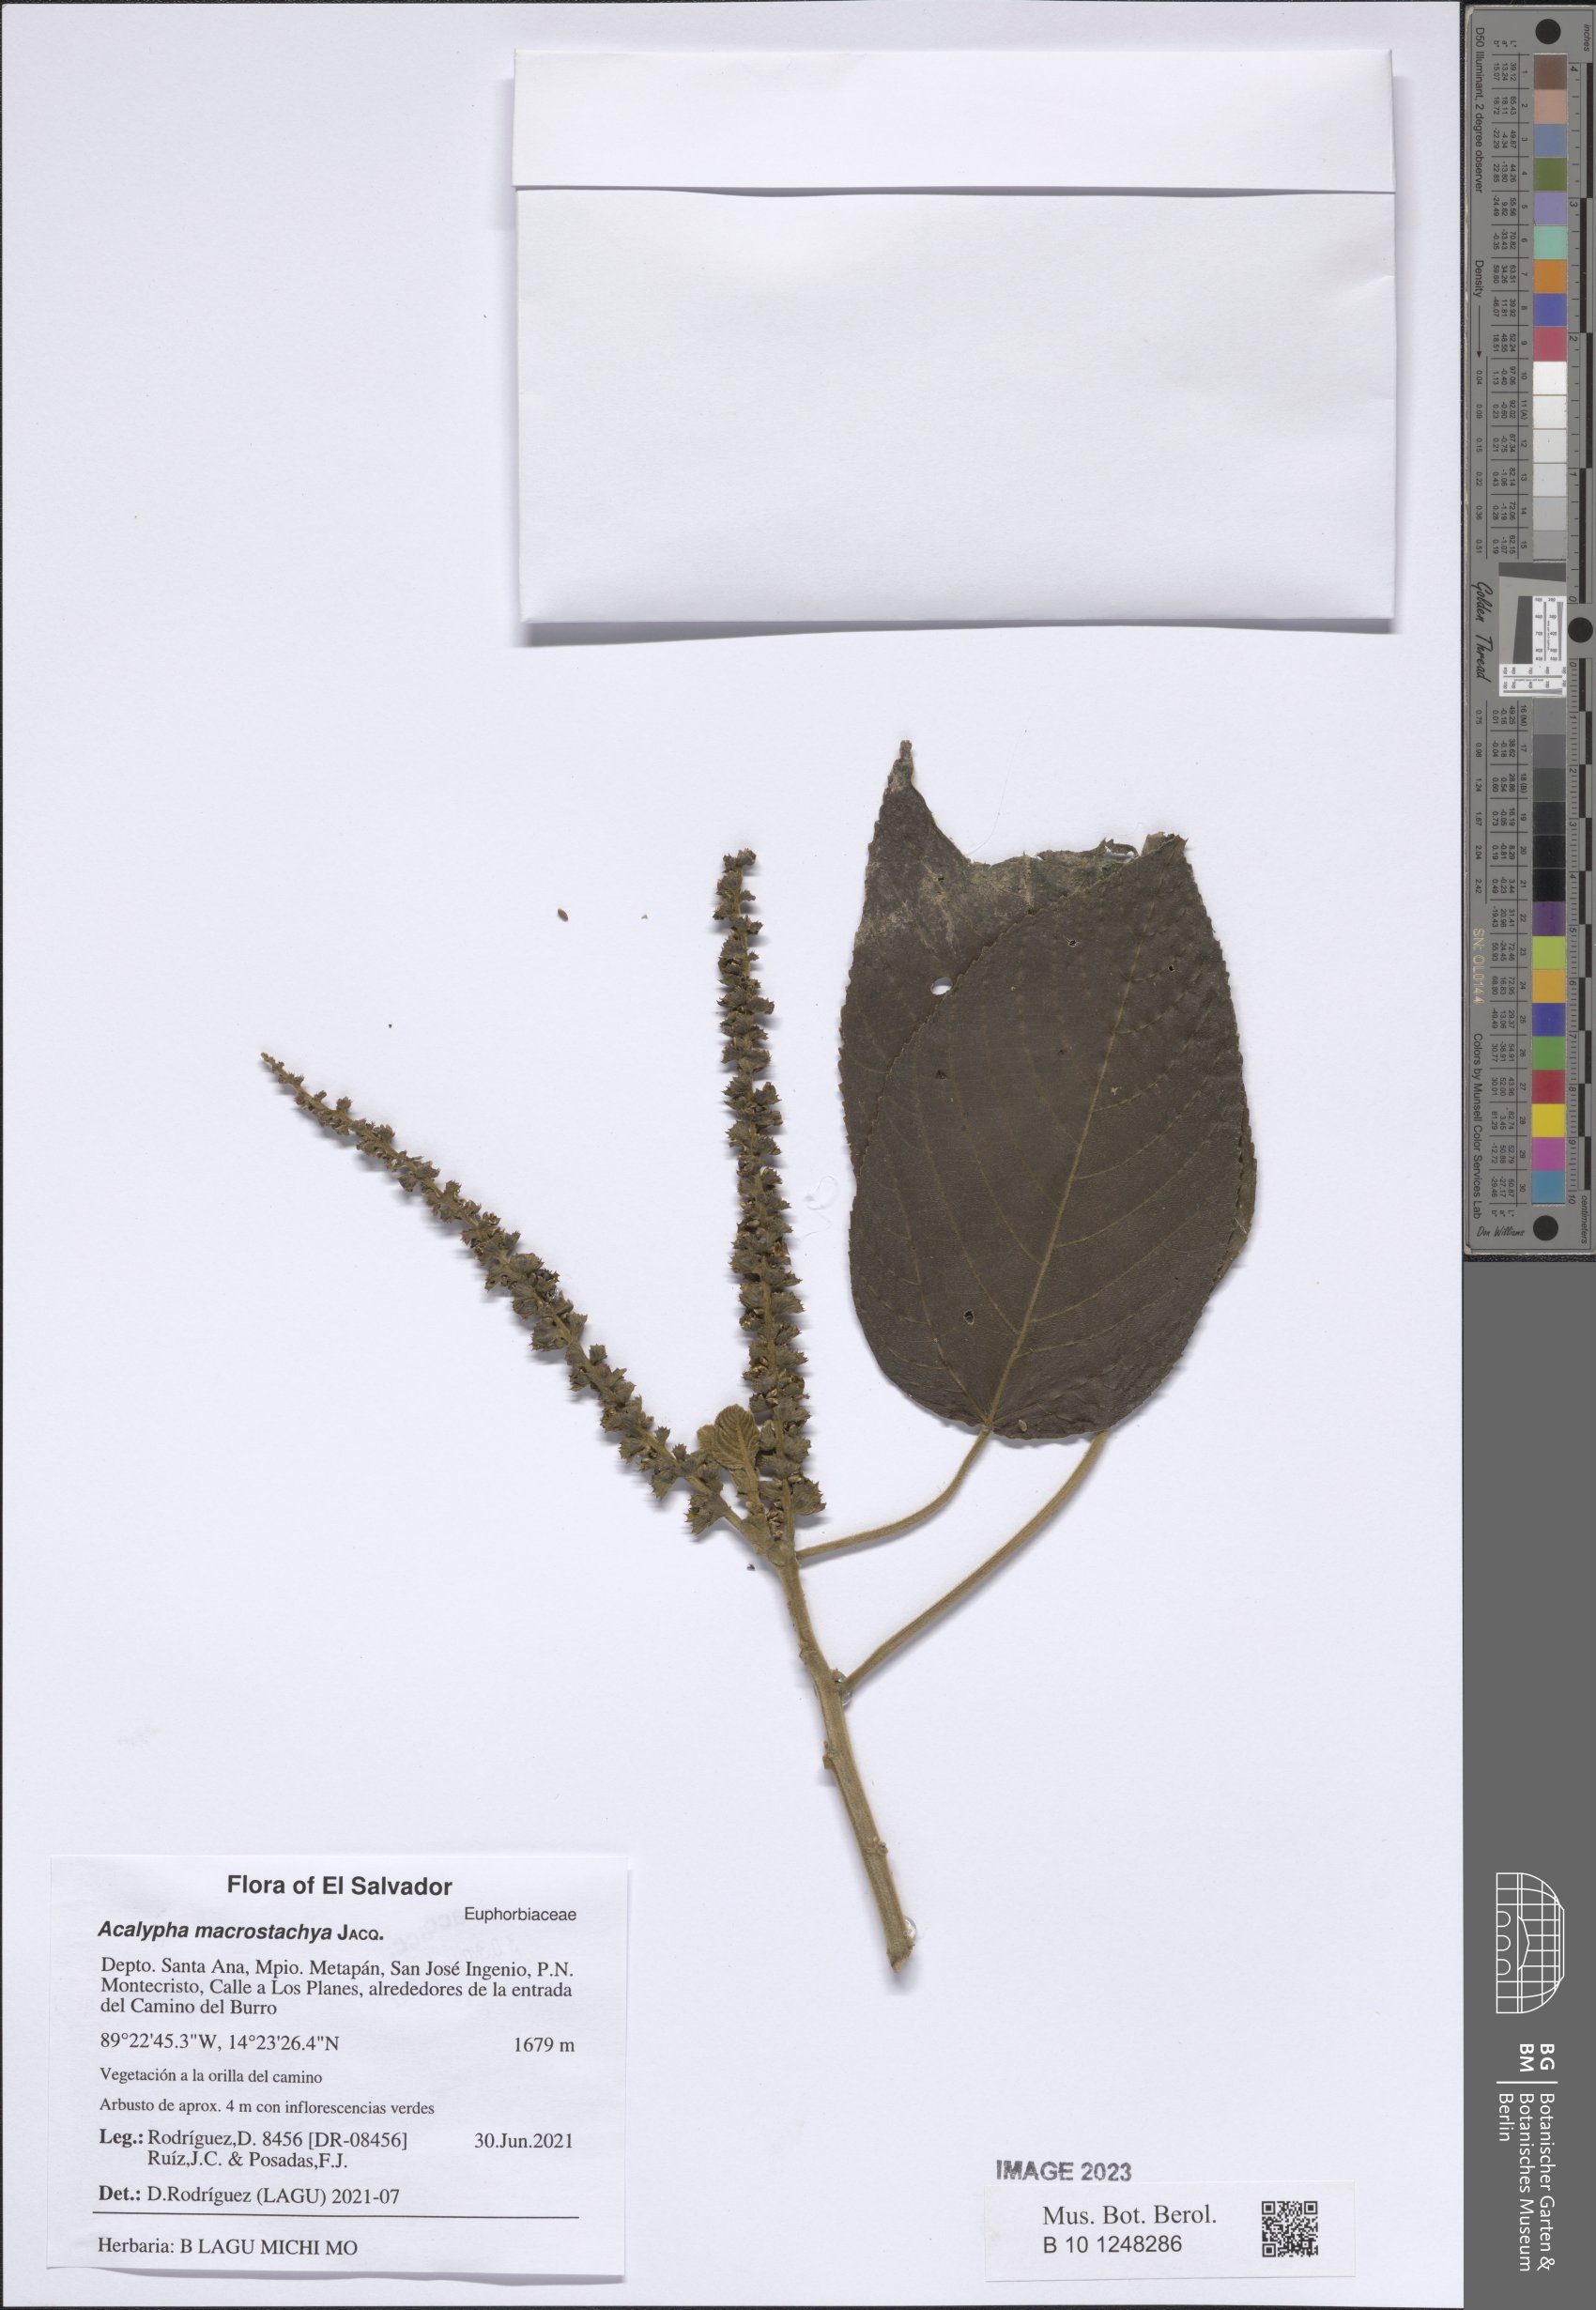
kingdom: Plantae
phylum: Tracheophyta
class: Magnoliopsida
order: Malpighiales
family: Euphorbiaceae
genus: Acalypha
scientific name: Acalypha macrostachya
